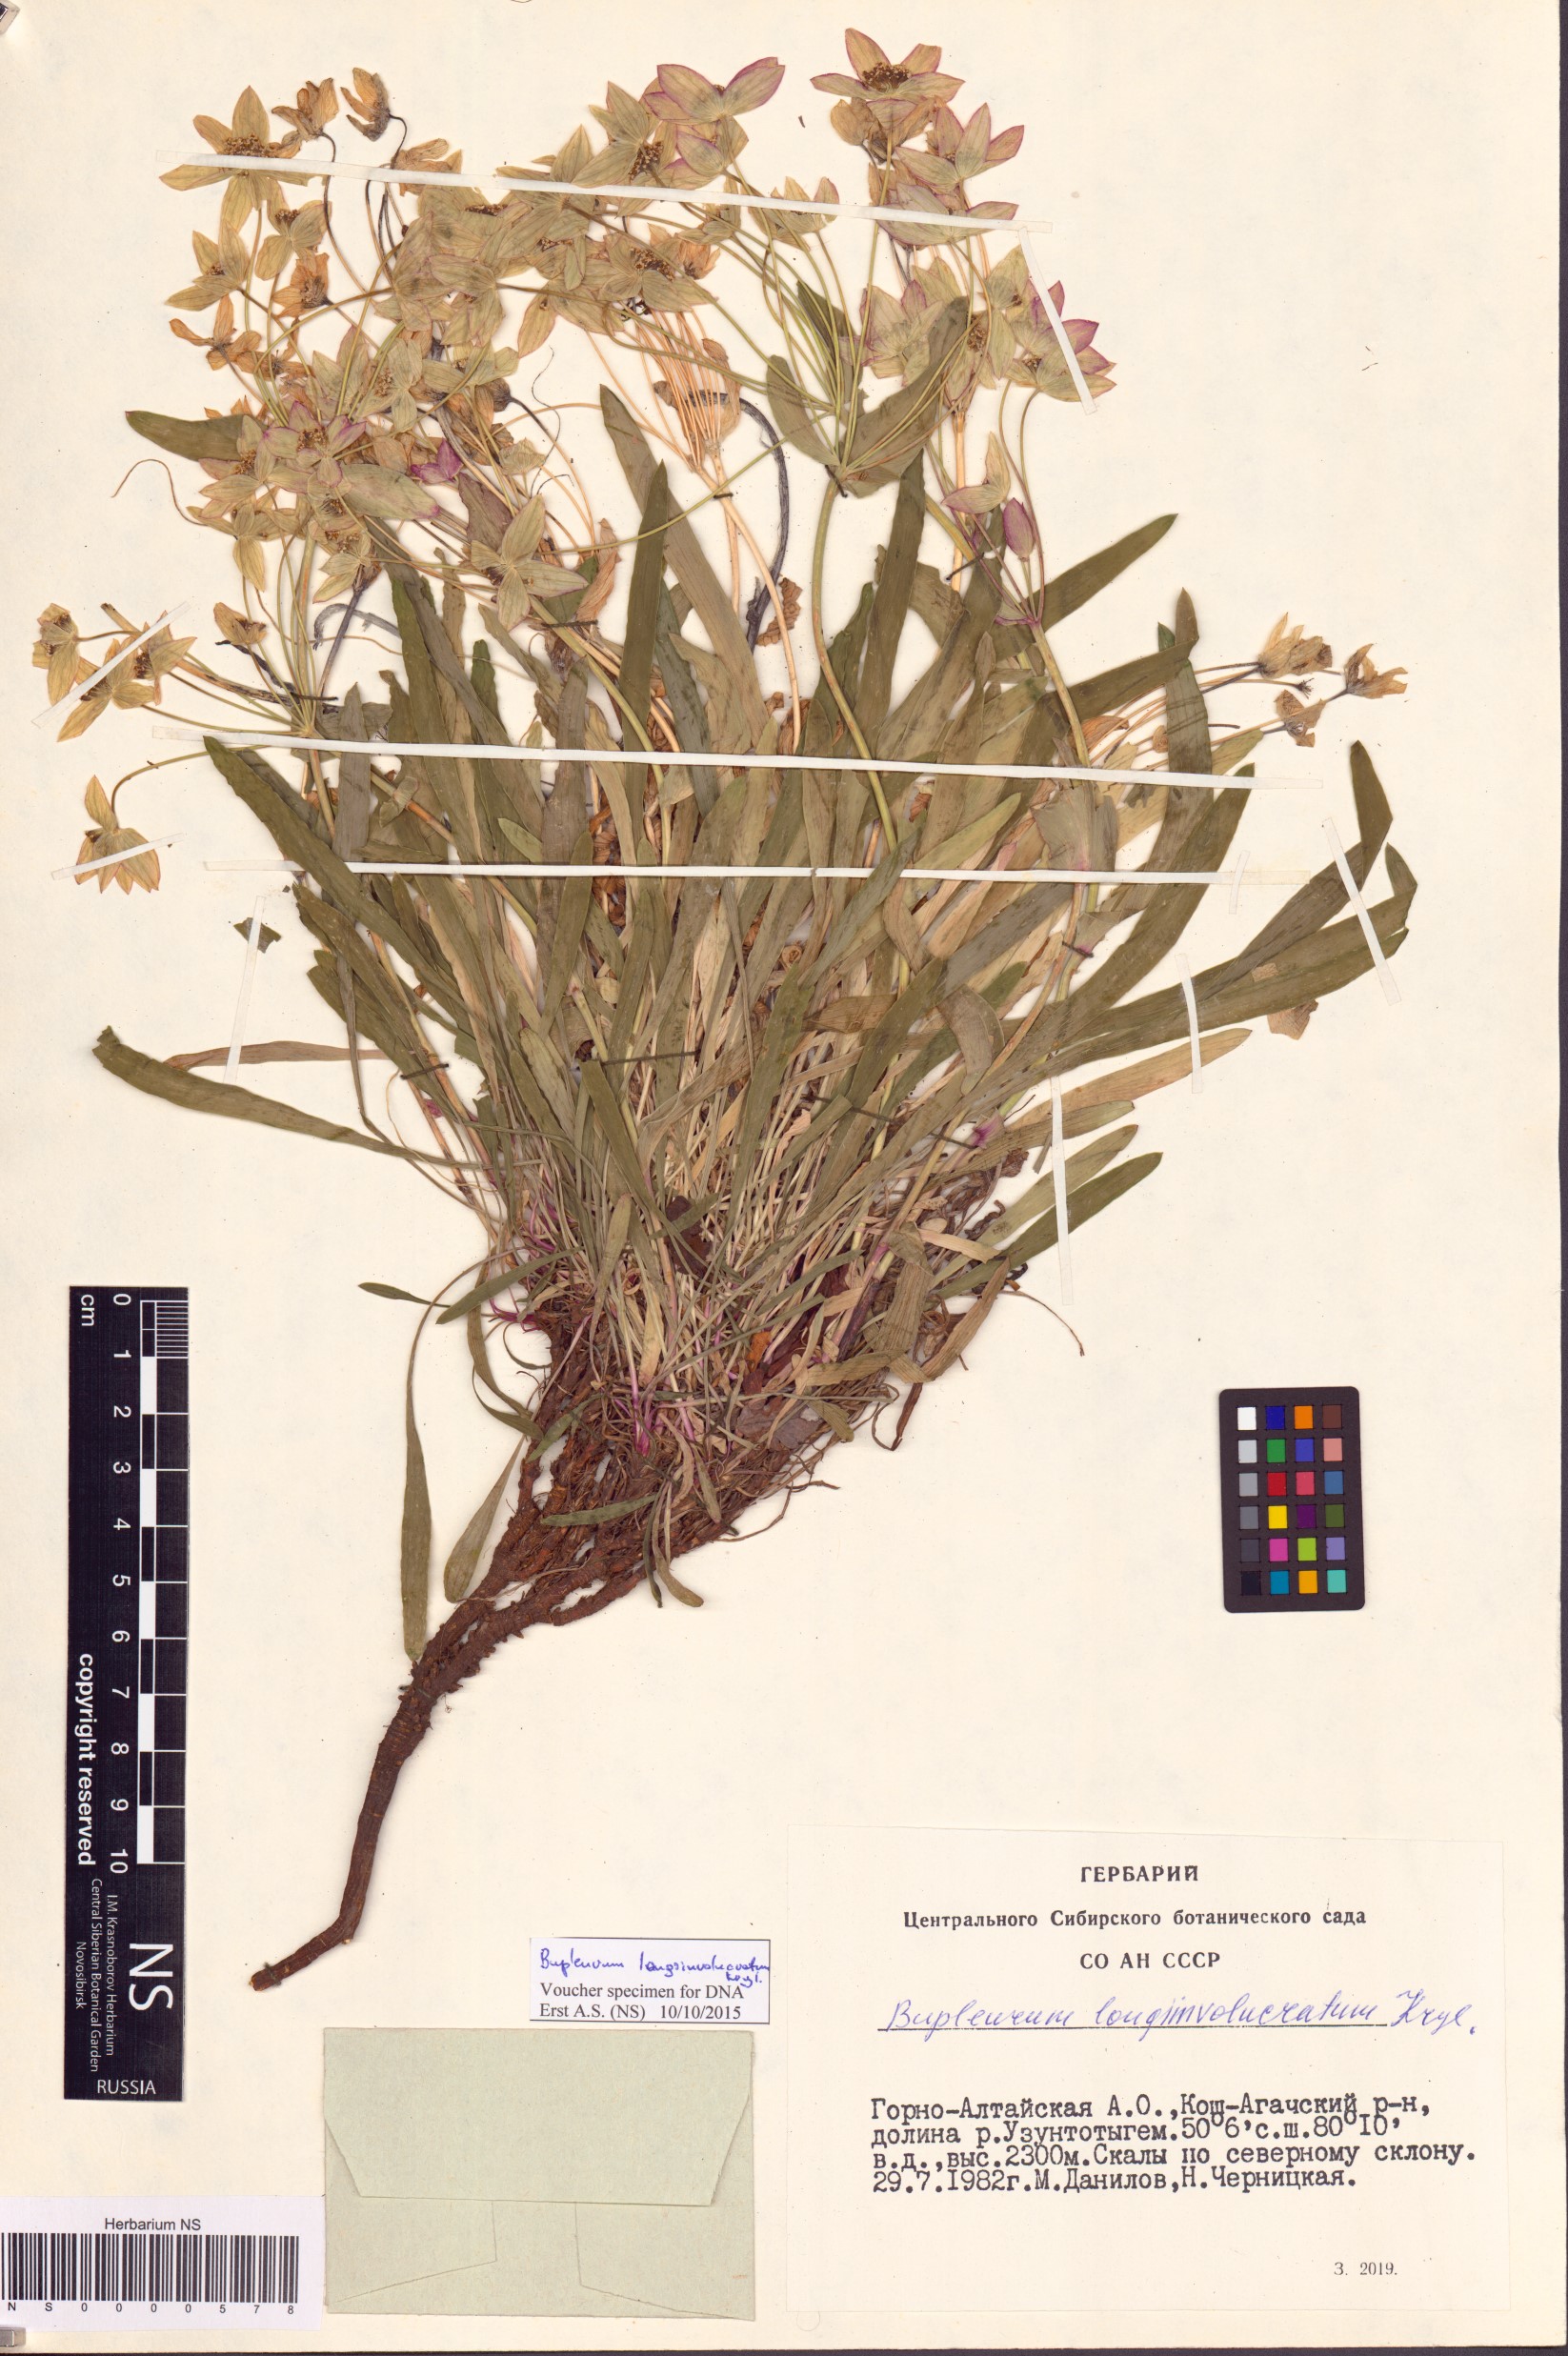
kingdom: Plantae
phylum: Tracheophyta
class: Magnoliopsida
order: Apiales
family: Apiaceae
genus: Bupleurum
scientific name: Bupleurum multinerve
